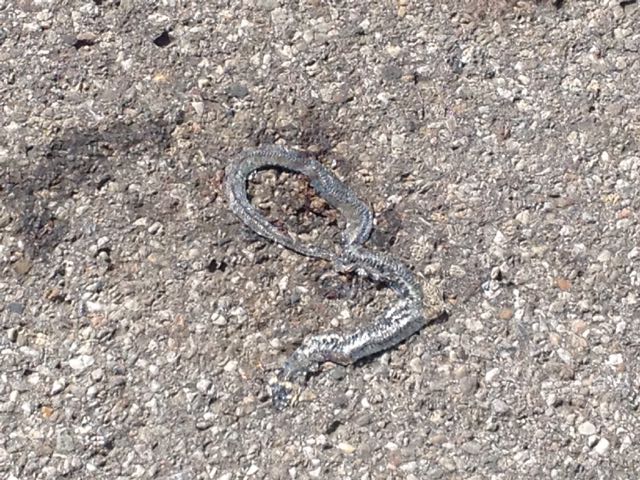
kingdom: Animalia
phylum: Chordata
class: Squamata
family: Colubridae
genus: Natrix
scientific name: Natrix natrix
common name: Grass snake
